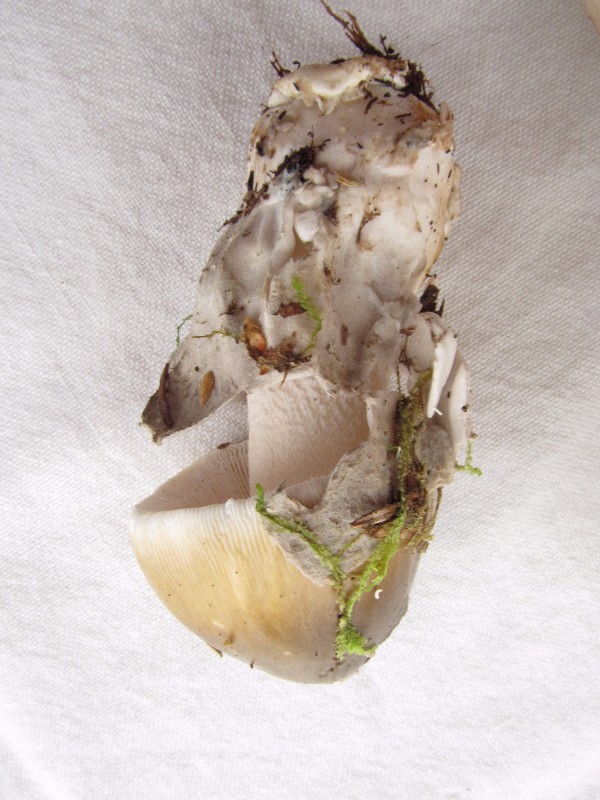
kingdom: Fungi
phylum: Basidiomycota
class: Agaricomycetes
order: Agaricales
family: Amanitaceae
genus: Amanita
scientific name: Amanita submembranacea
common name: gråspættet kam-fluesvamp
